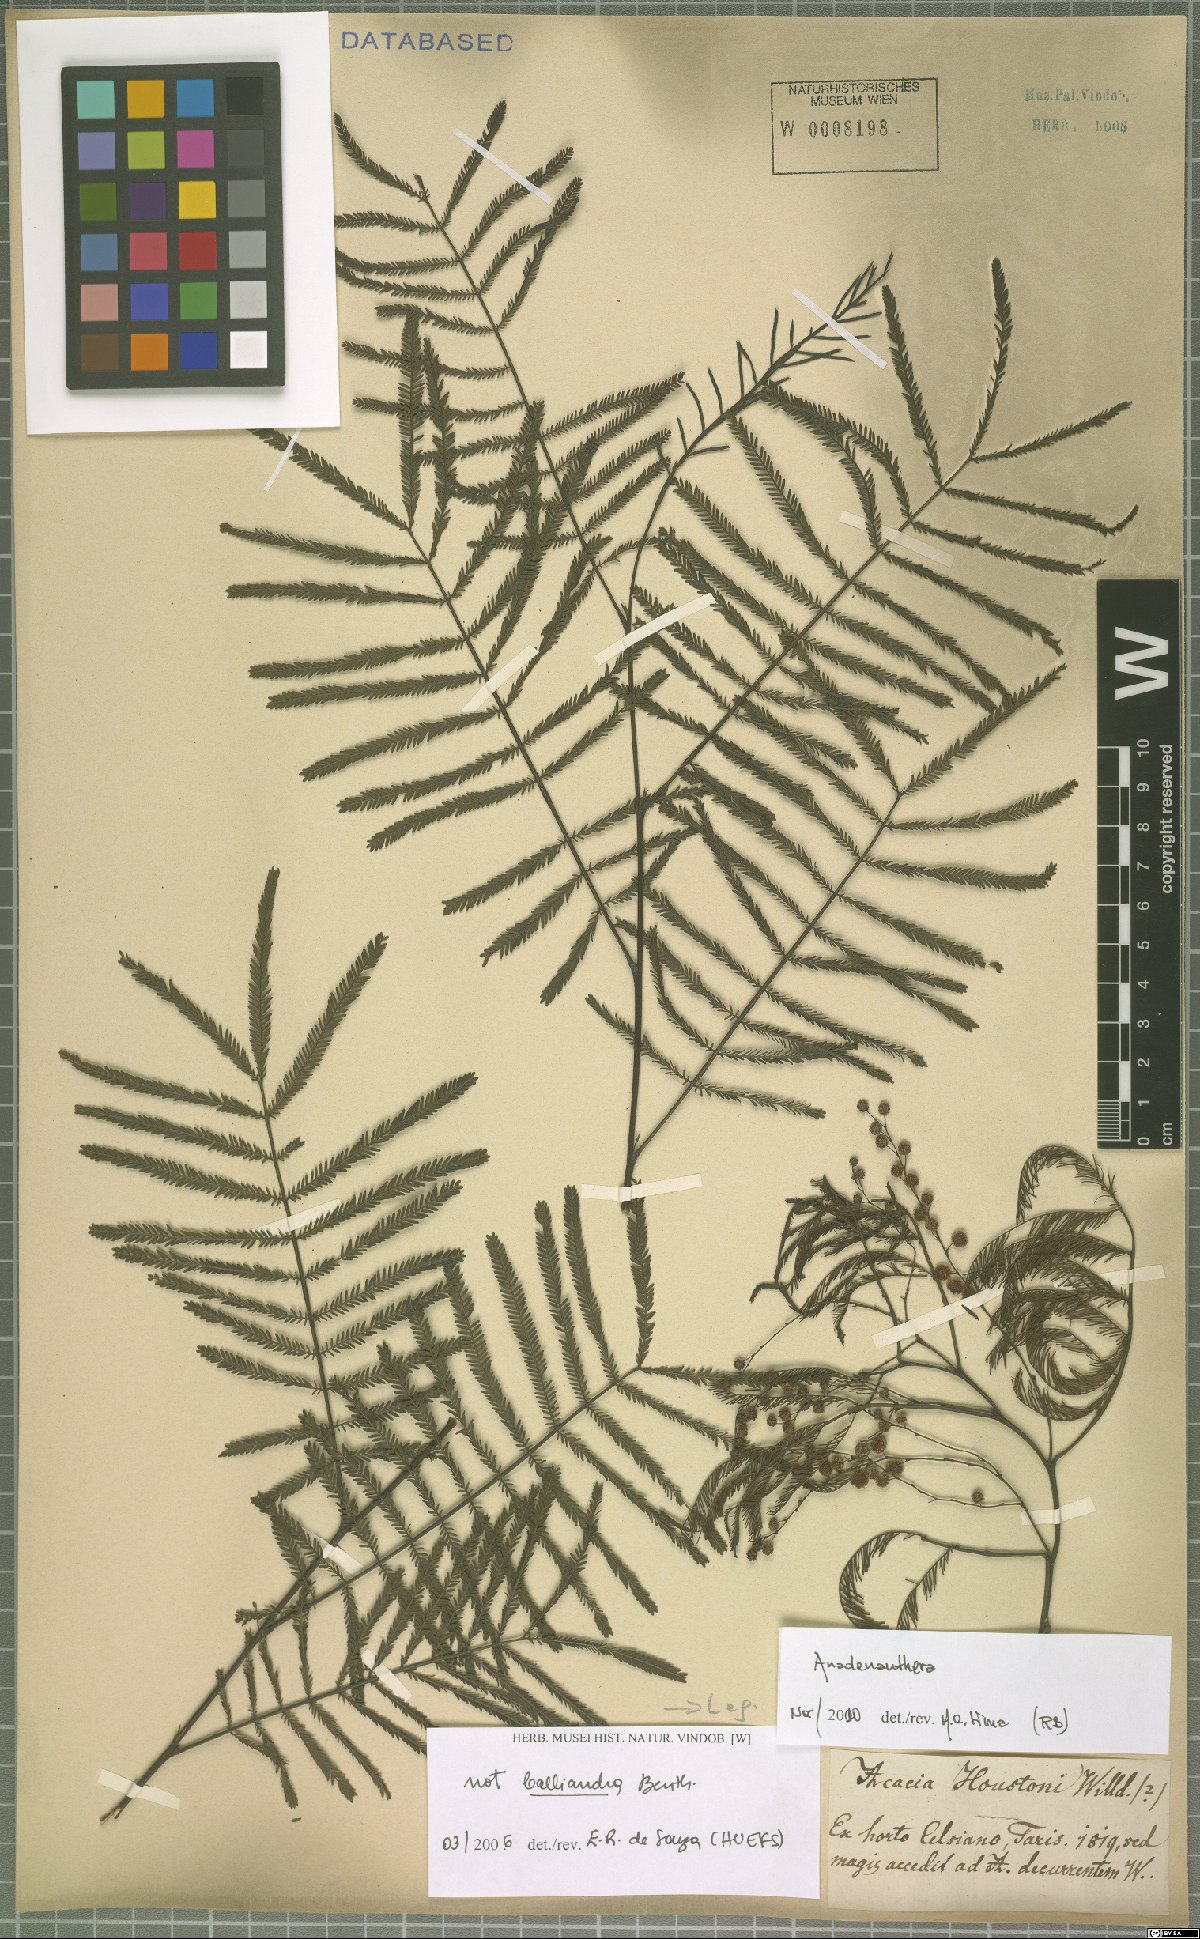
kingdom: Plantae
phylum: Tracheophyta
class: Magnoliopsida
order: Fabales
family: Fabaceae
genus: Anadenanthera
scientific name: Anadenanthera
